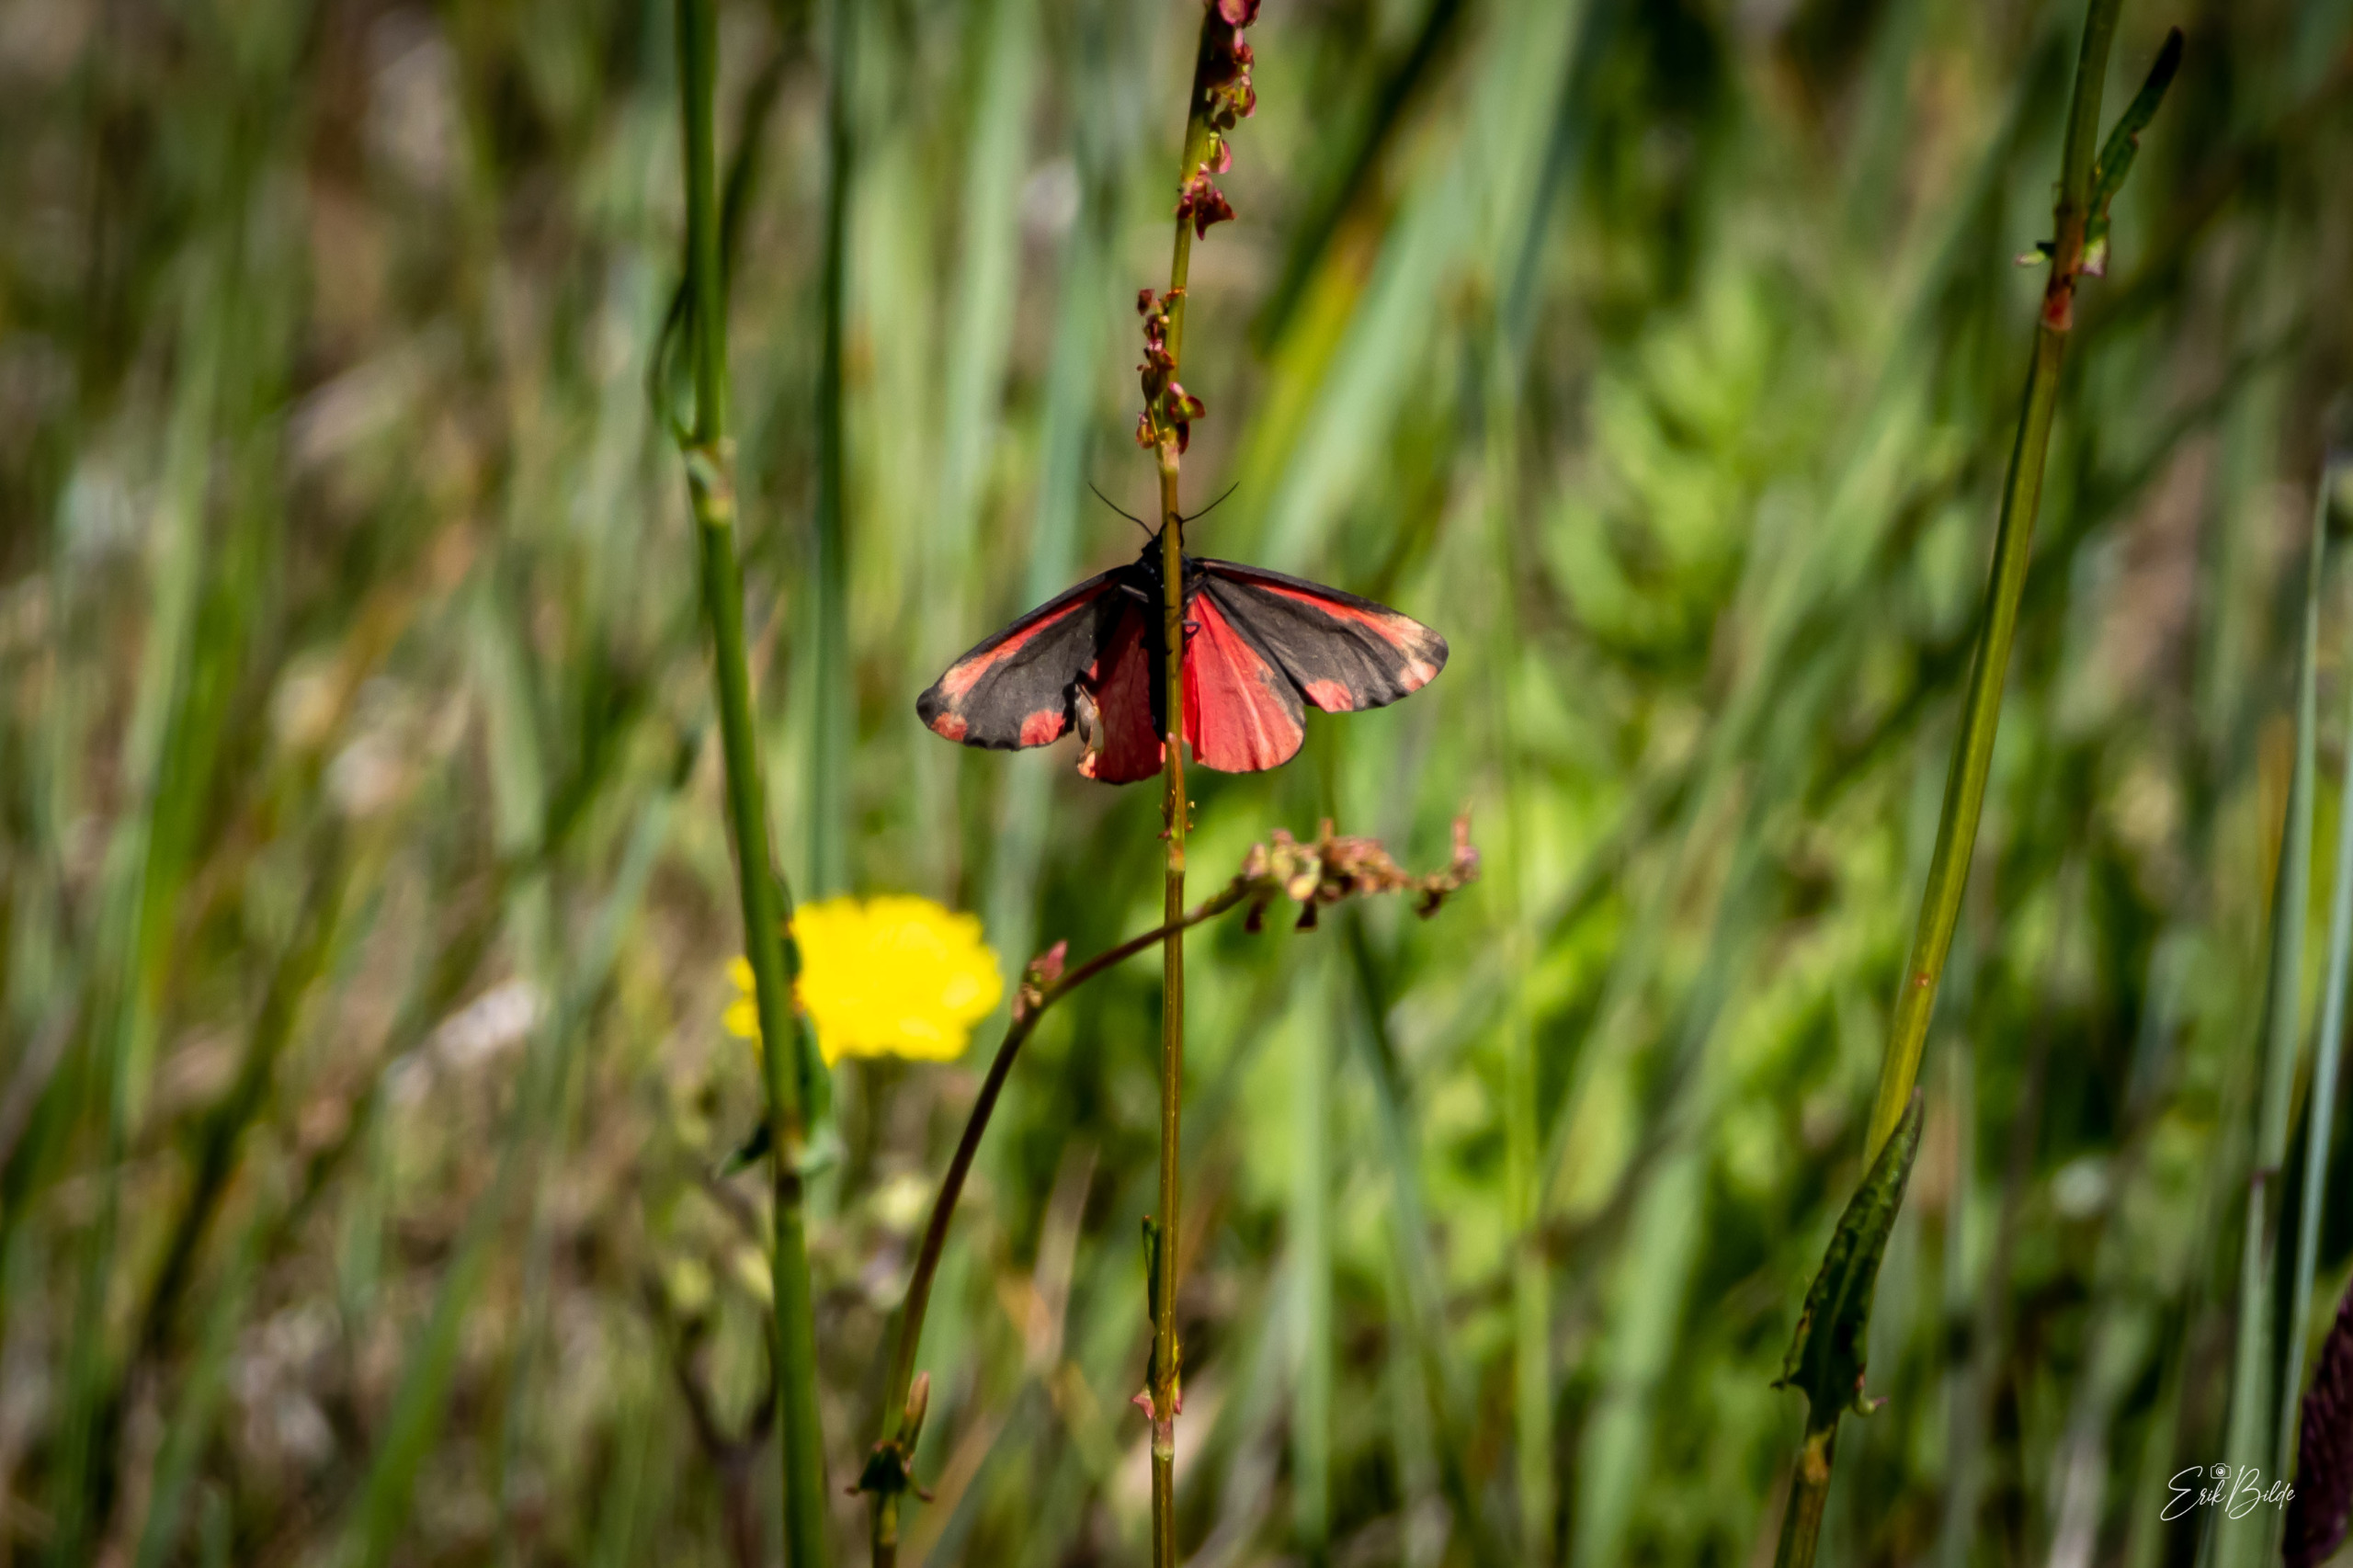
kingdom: Animalia
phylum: Arthropoda
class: Insecta
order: Lepidoptera
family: Erebidae
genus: Tyria
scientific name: Tyria jacobaeae
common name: Blodplet
